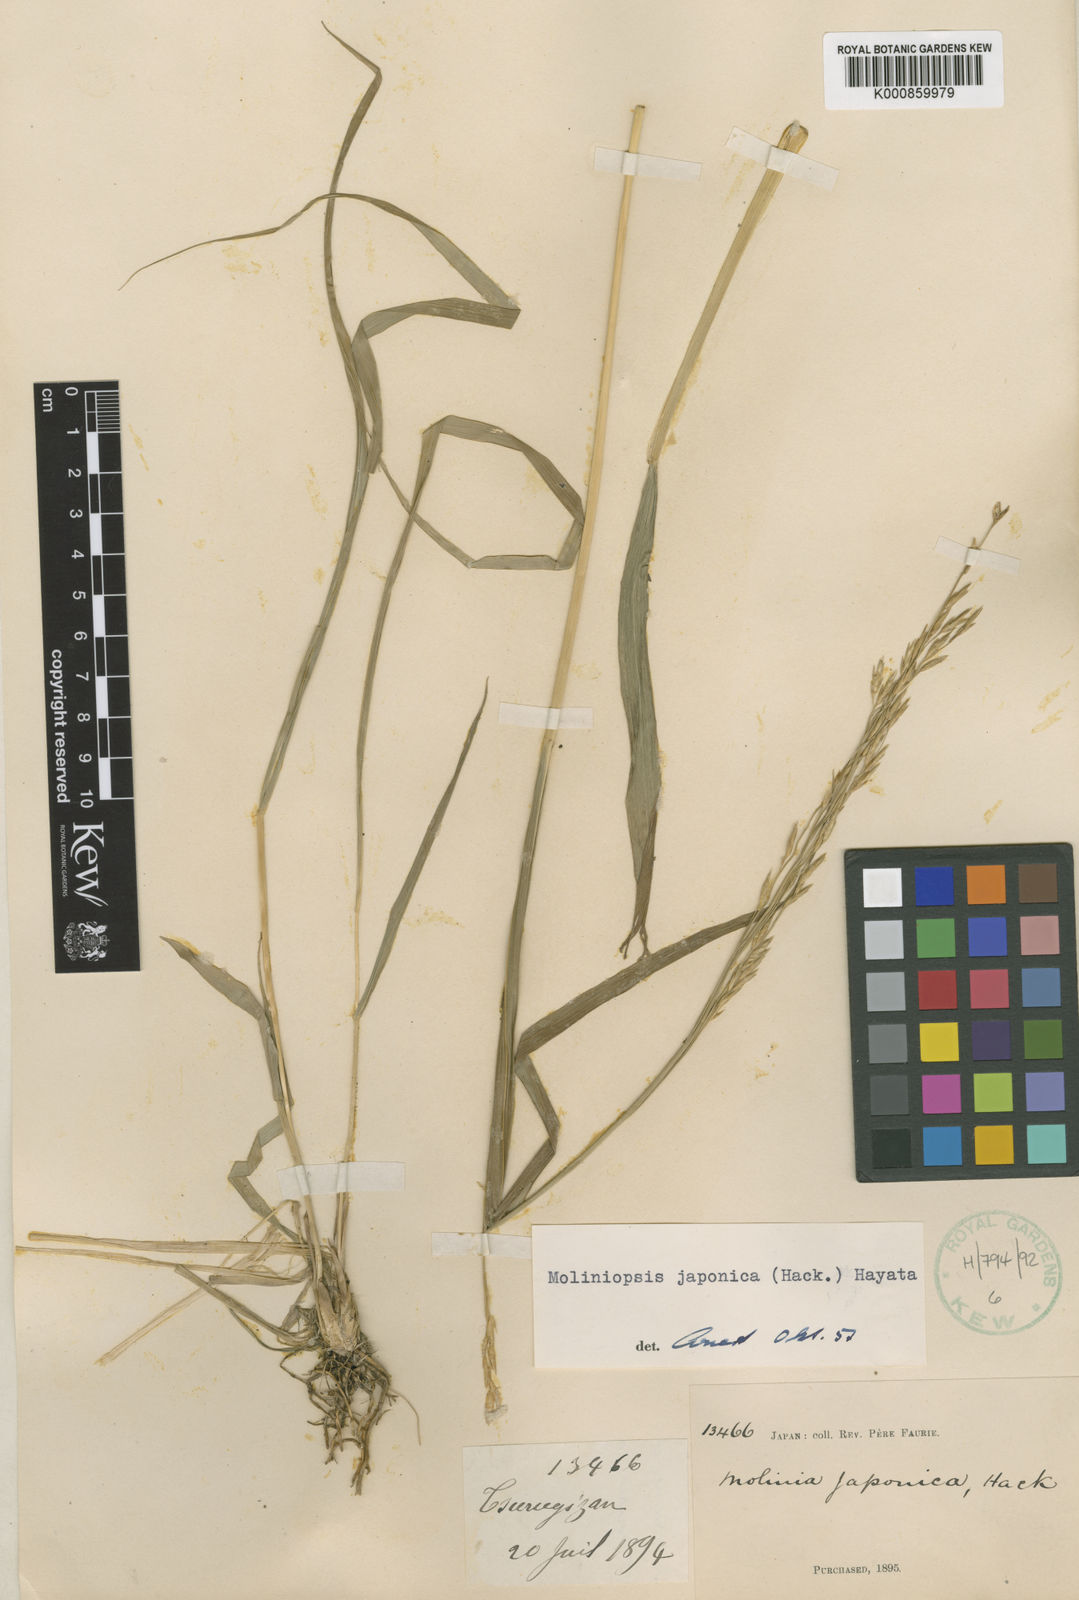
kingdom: Plantae
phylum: Tracheophyta
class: Liliopsida
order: Poales
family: Poaceae
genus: Moliniopsis
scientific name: Moliniopsis japonica
